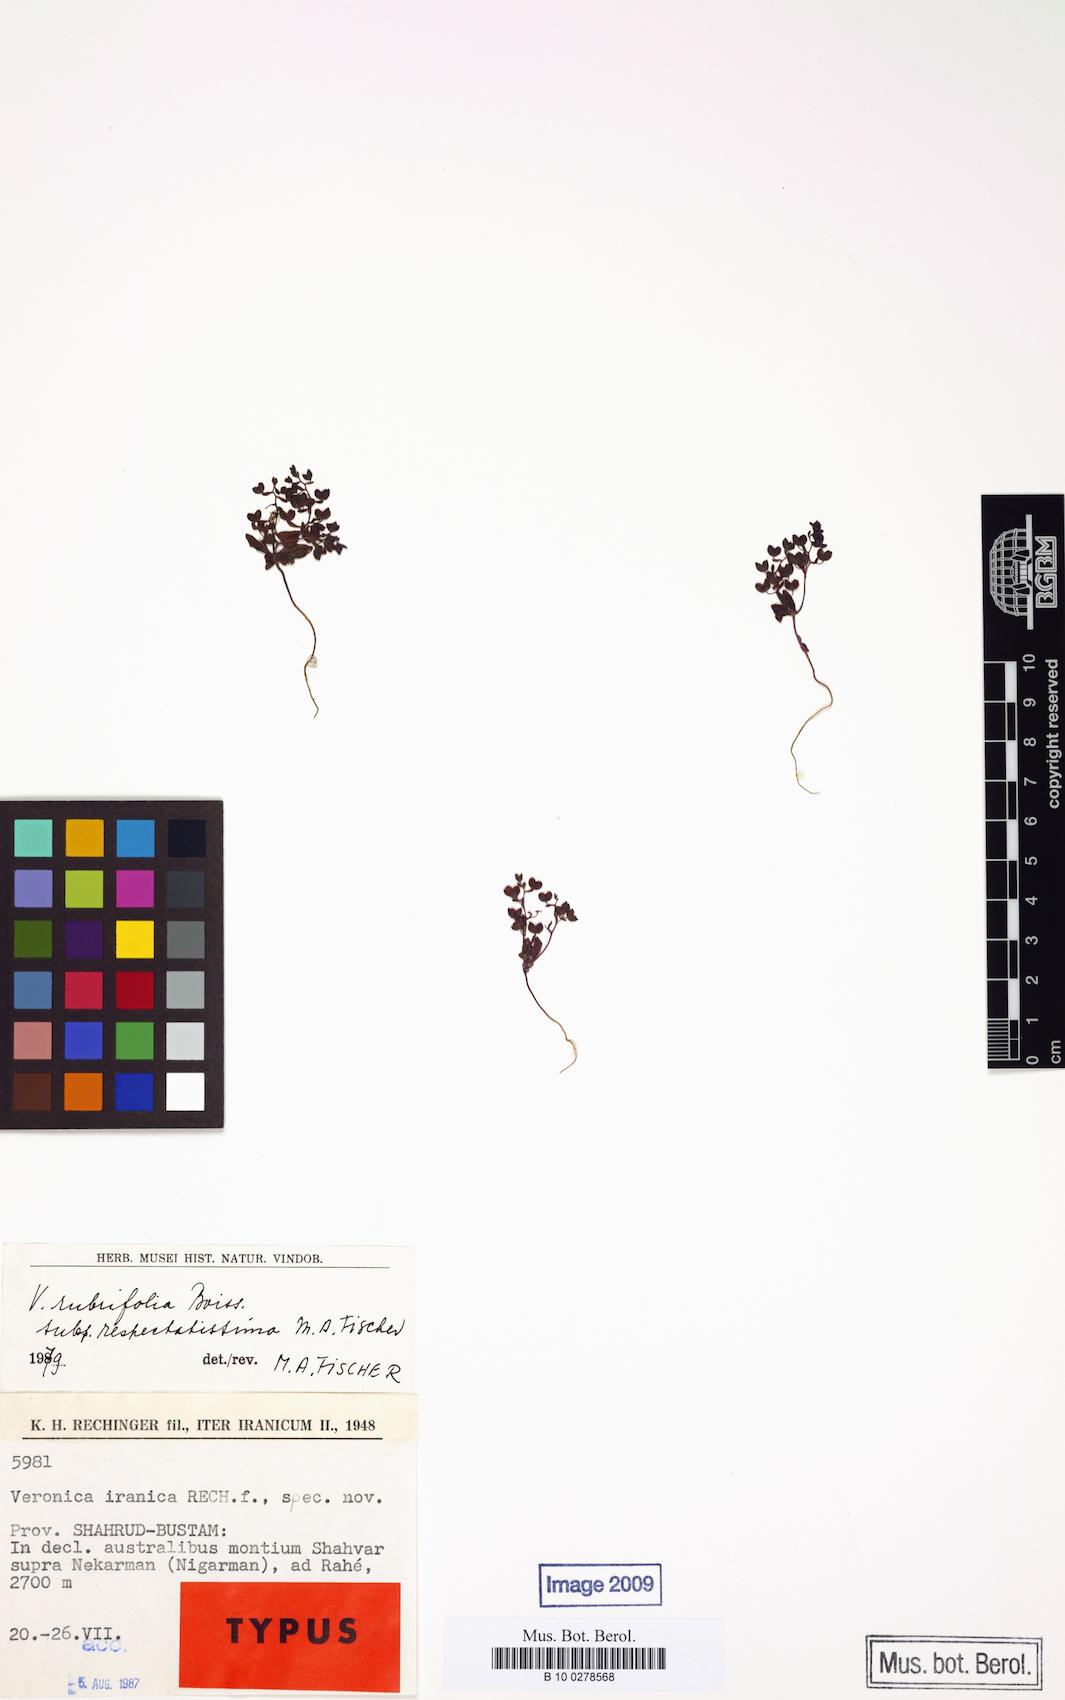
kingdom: Plantae
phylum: Tracheophyta
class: Magnoliopsida
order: Lamiales
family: Plantaginaceae
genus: Veronica
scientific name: Veronica rubrifolia
